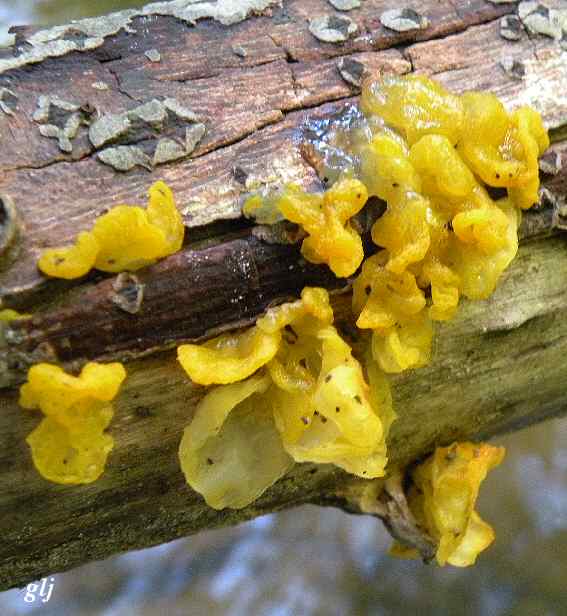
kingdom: Fungi
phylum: Basidiomycota
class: Tremellomycetes
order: Tremellales
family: Tremellaceae
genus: Tremella
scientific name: Tremella mesenterica
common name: gul bævresvamp
